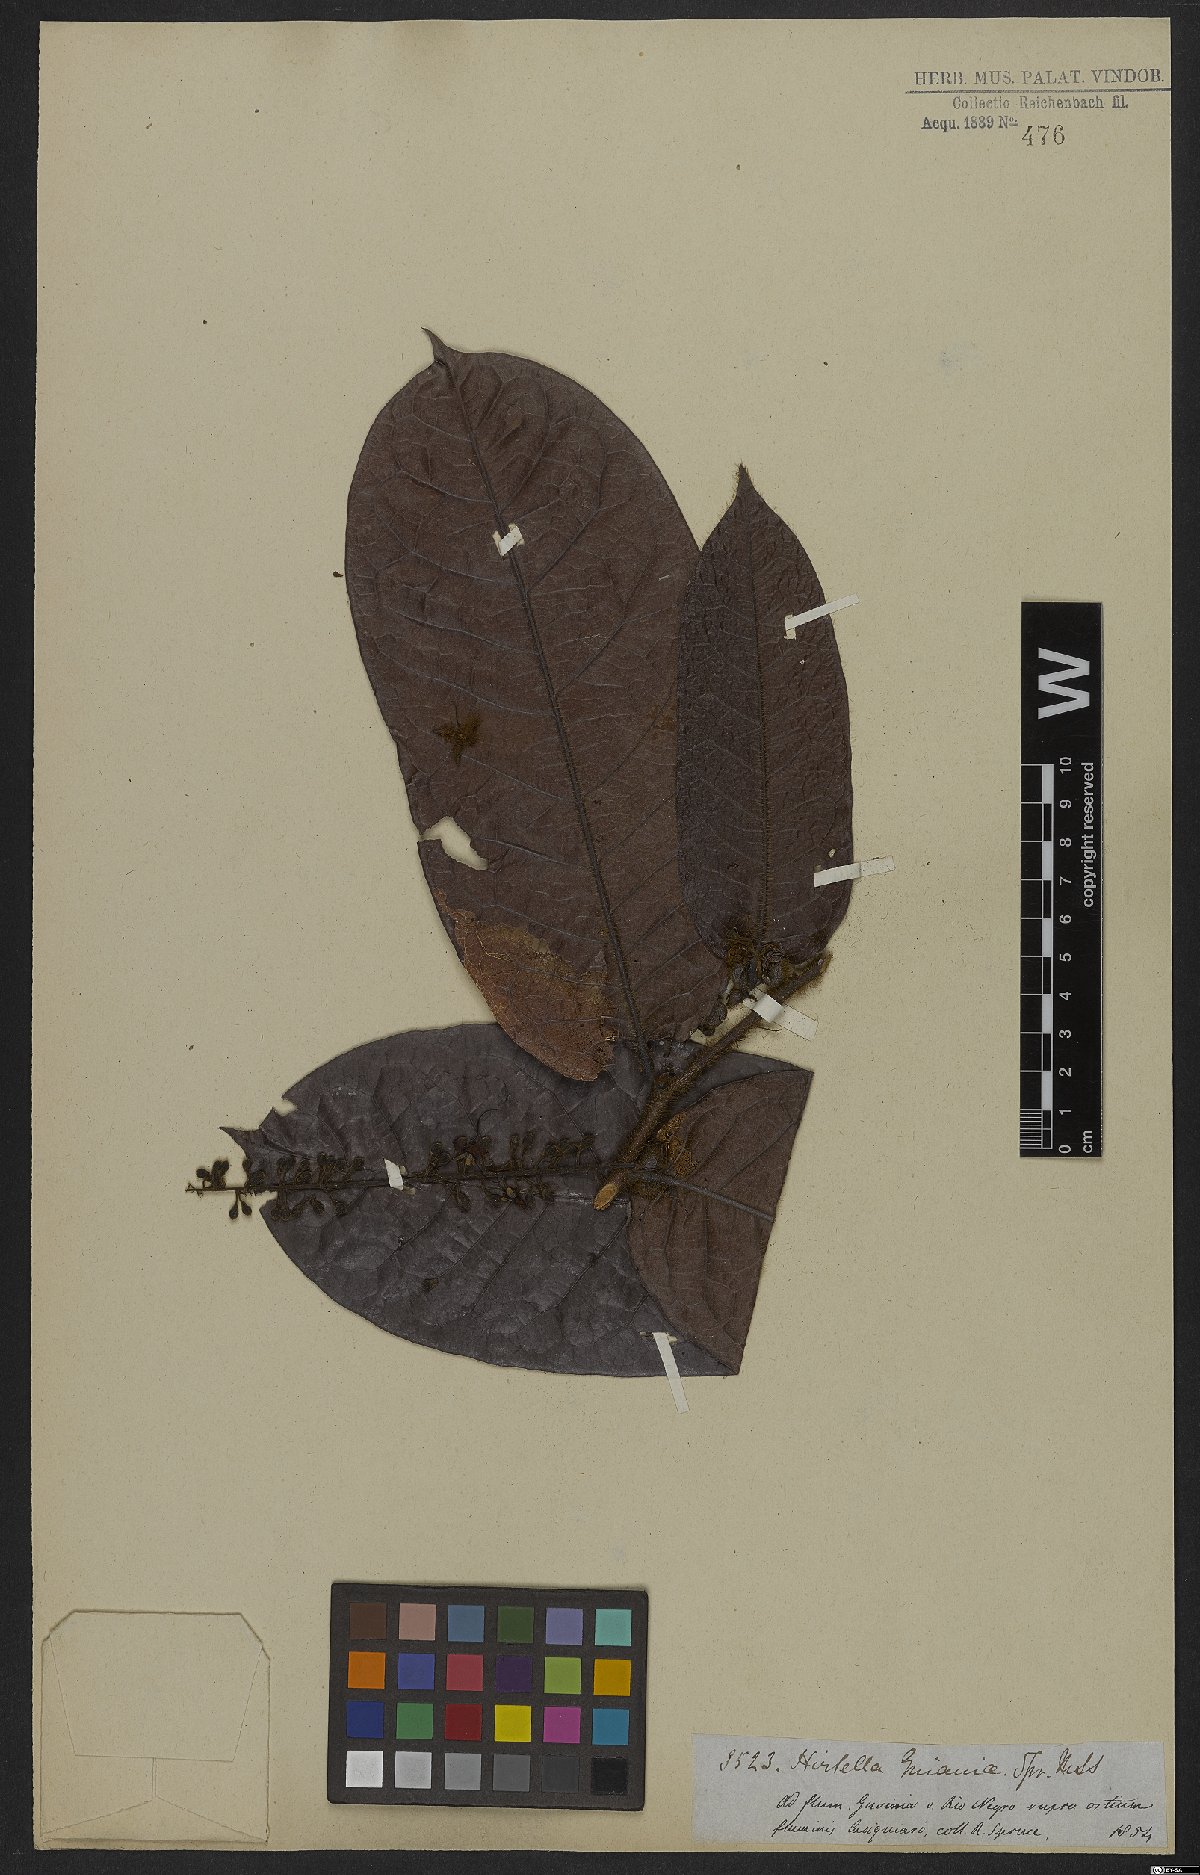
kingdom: Plantae
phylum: Tracheophyta
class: Magnoliopsida
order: Malpighiales
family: Chrysobalanaceae
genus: Hirtella
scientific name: Hirtella guainiae
